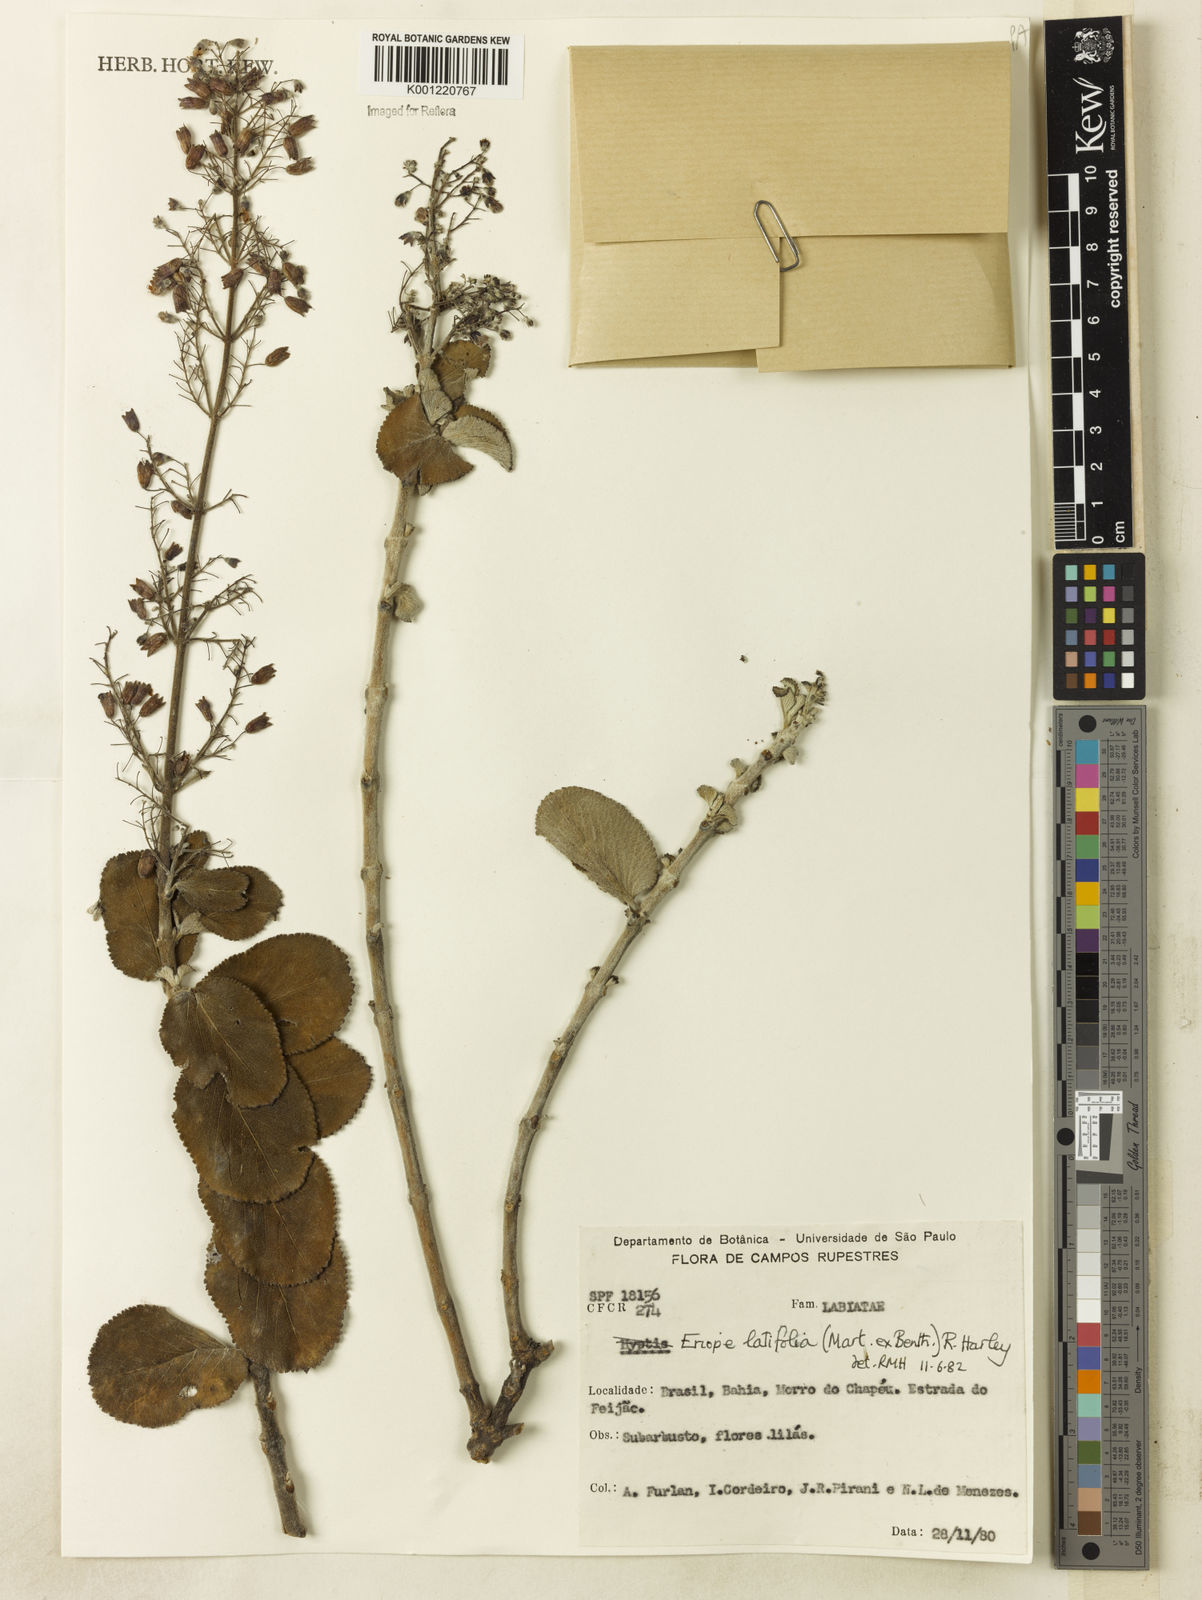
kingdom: Plantae
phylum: Tracheophyta
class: Magnoliopsida
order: Lamiales
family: Lamiaceae
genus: Eriope
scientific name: Eriope latifolia
